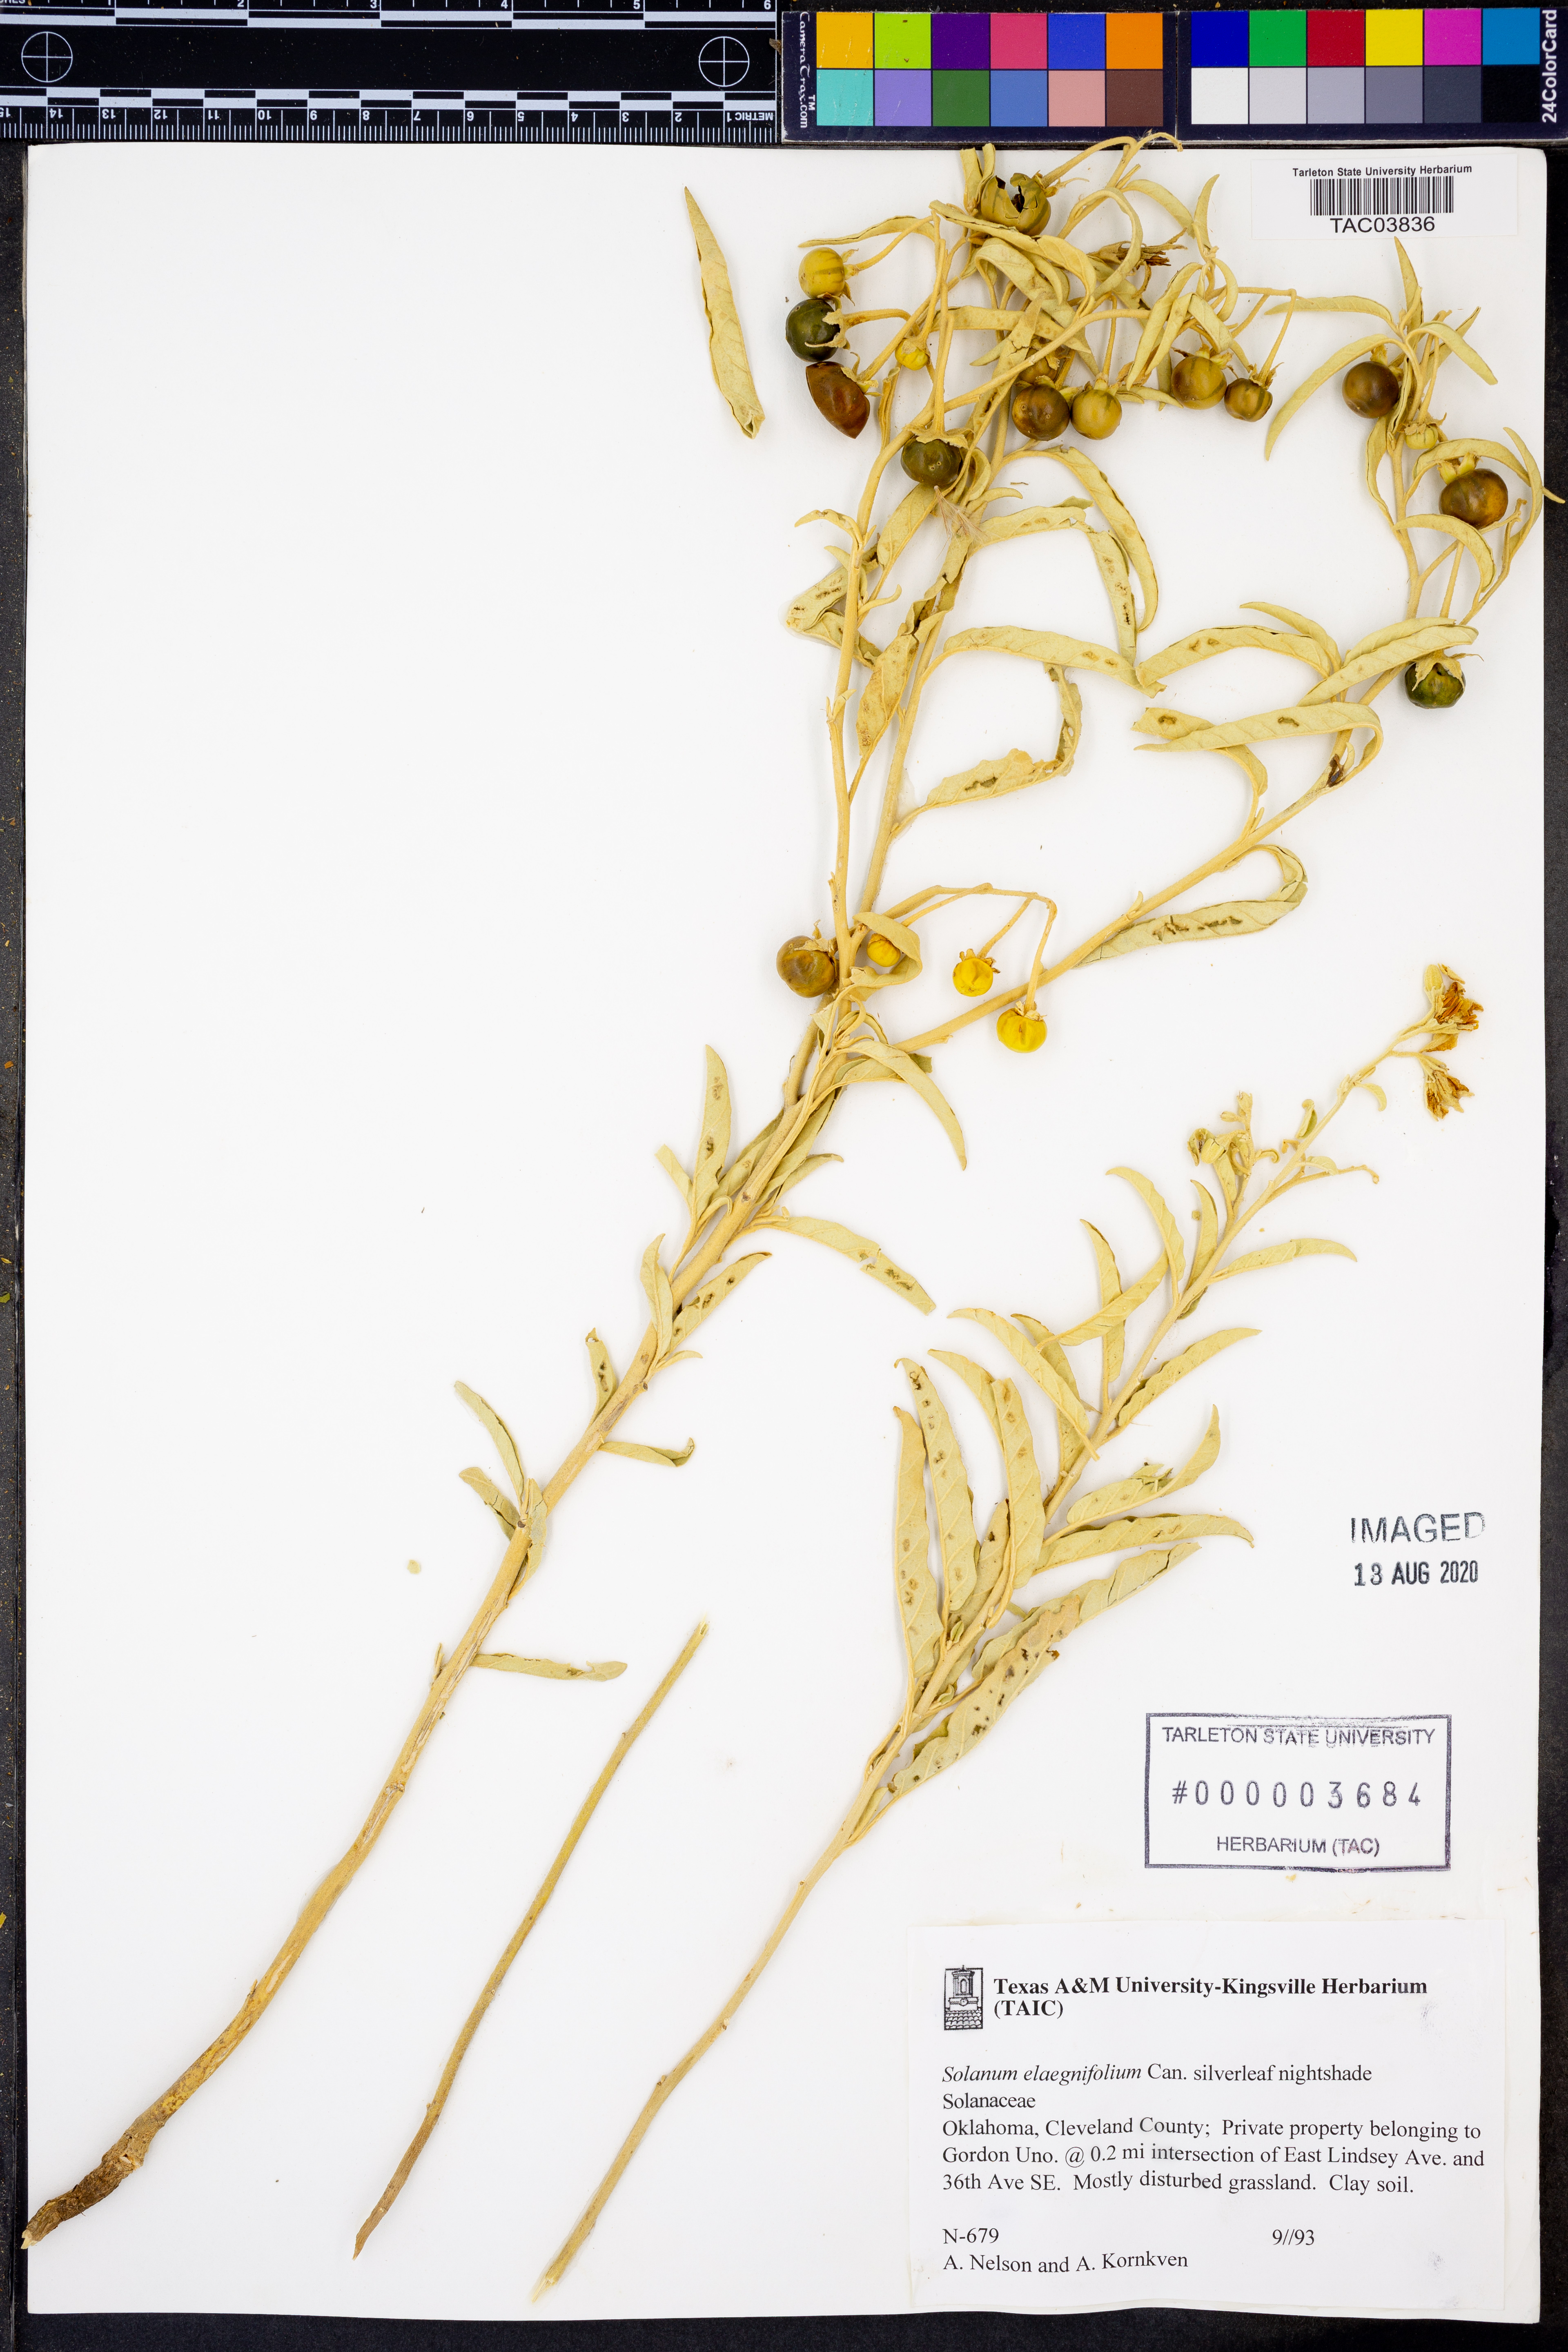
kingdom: Plantae
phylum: Tracheophyta
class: Magnoliopsida
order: Solanales
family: Solanaceae
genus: Solanum
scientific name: Solanum elaeagnifolium
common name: Silverleaf nightshade
